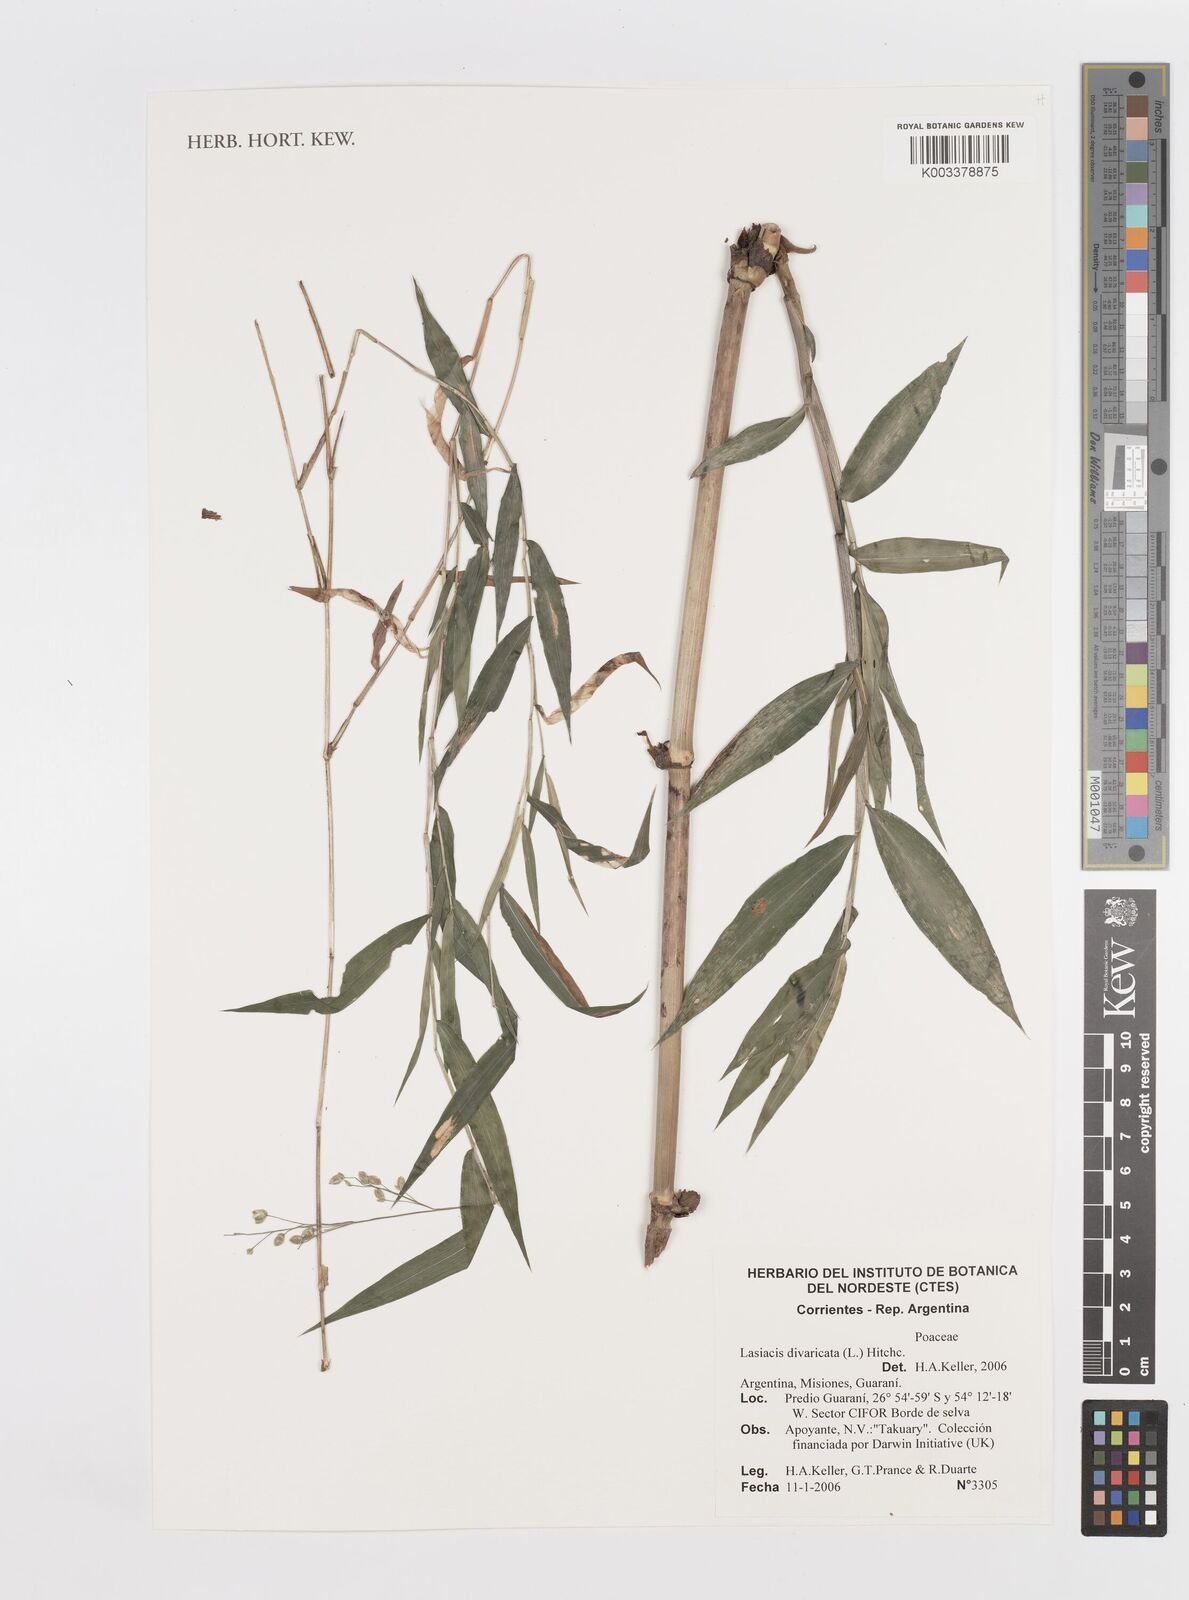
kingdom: Plantae
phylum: Tracheophyta
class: Liliopsida
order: Poales
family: Poaceae
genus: Lasiacis
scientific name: Lasiacis divaricata
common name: Smallcane
